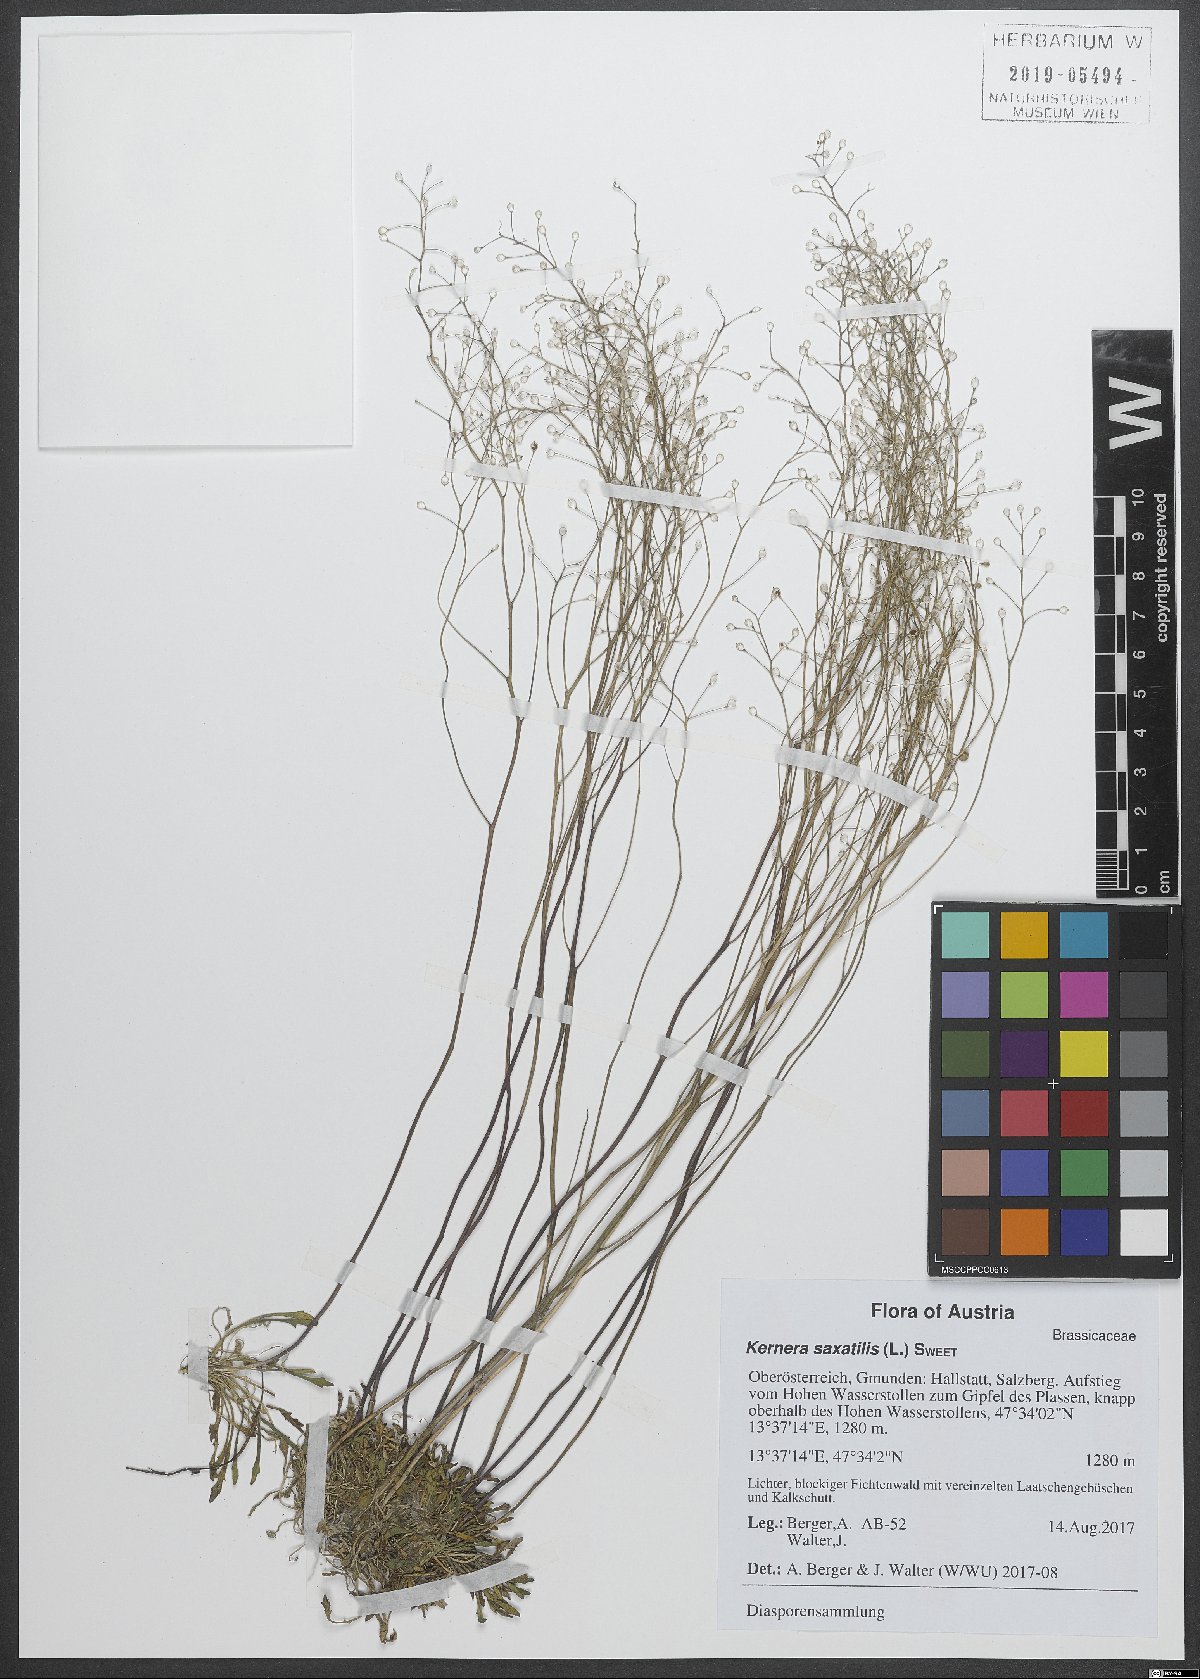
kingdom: Plantae
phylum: Tracheophyta
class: Magnoliopsida
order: Brassicales
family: Brassicaceae
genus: Kernera
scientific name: Kernera saxatilis
